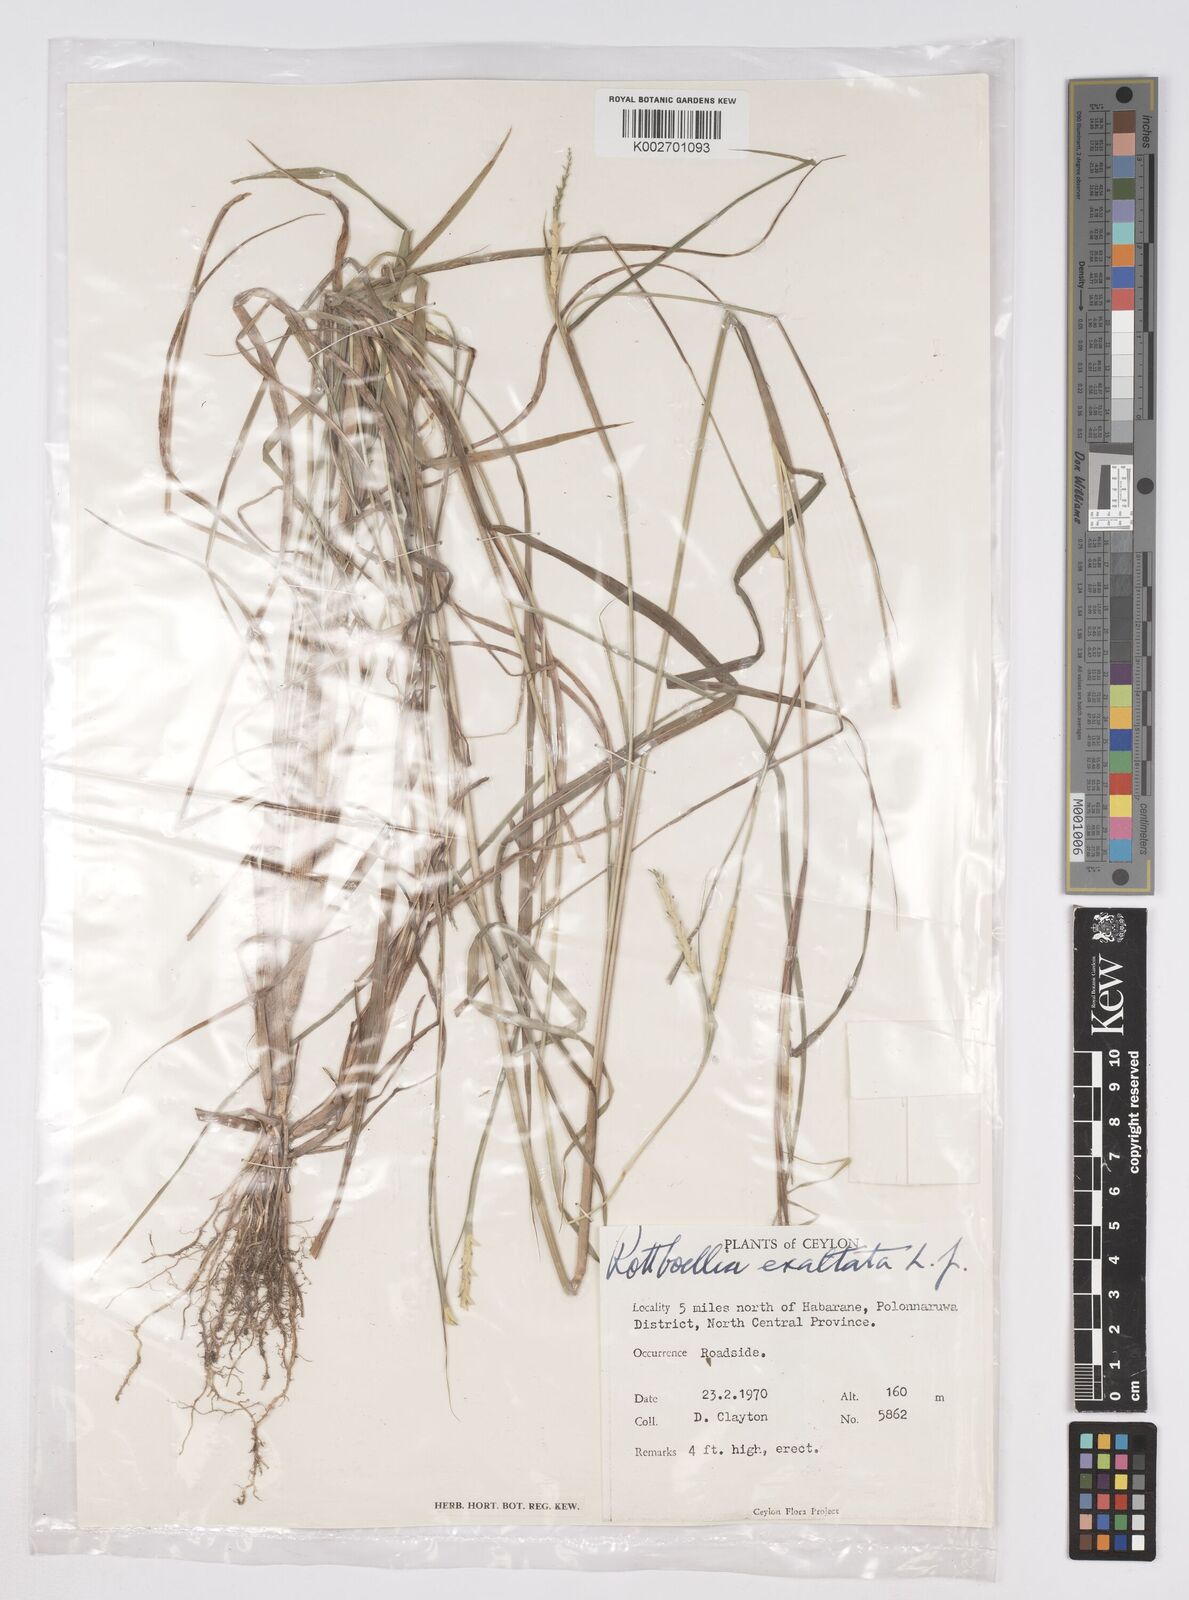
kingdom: Plantae
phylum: Tracheophyta
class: Liliopsida
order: Poales
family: Poaceae
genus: Ophiuros
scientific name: Ophiuros exaltatus
